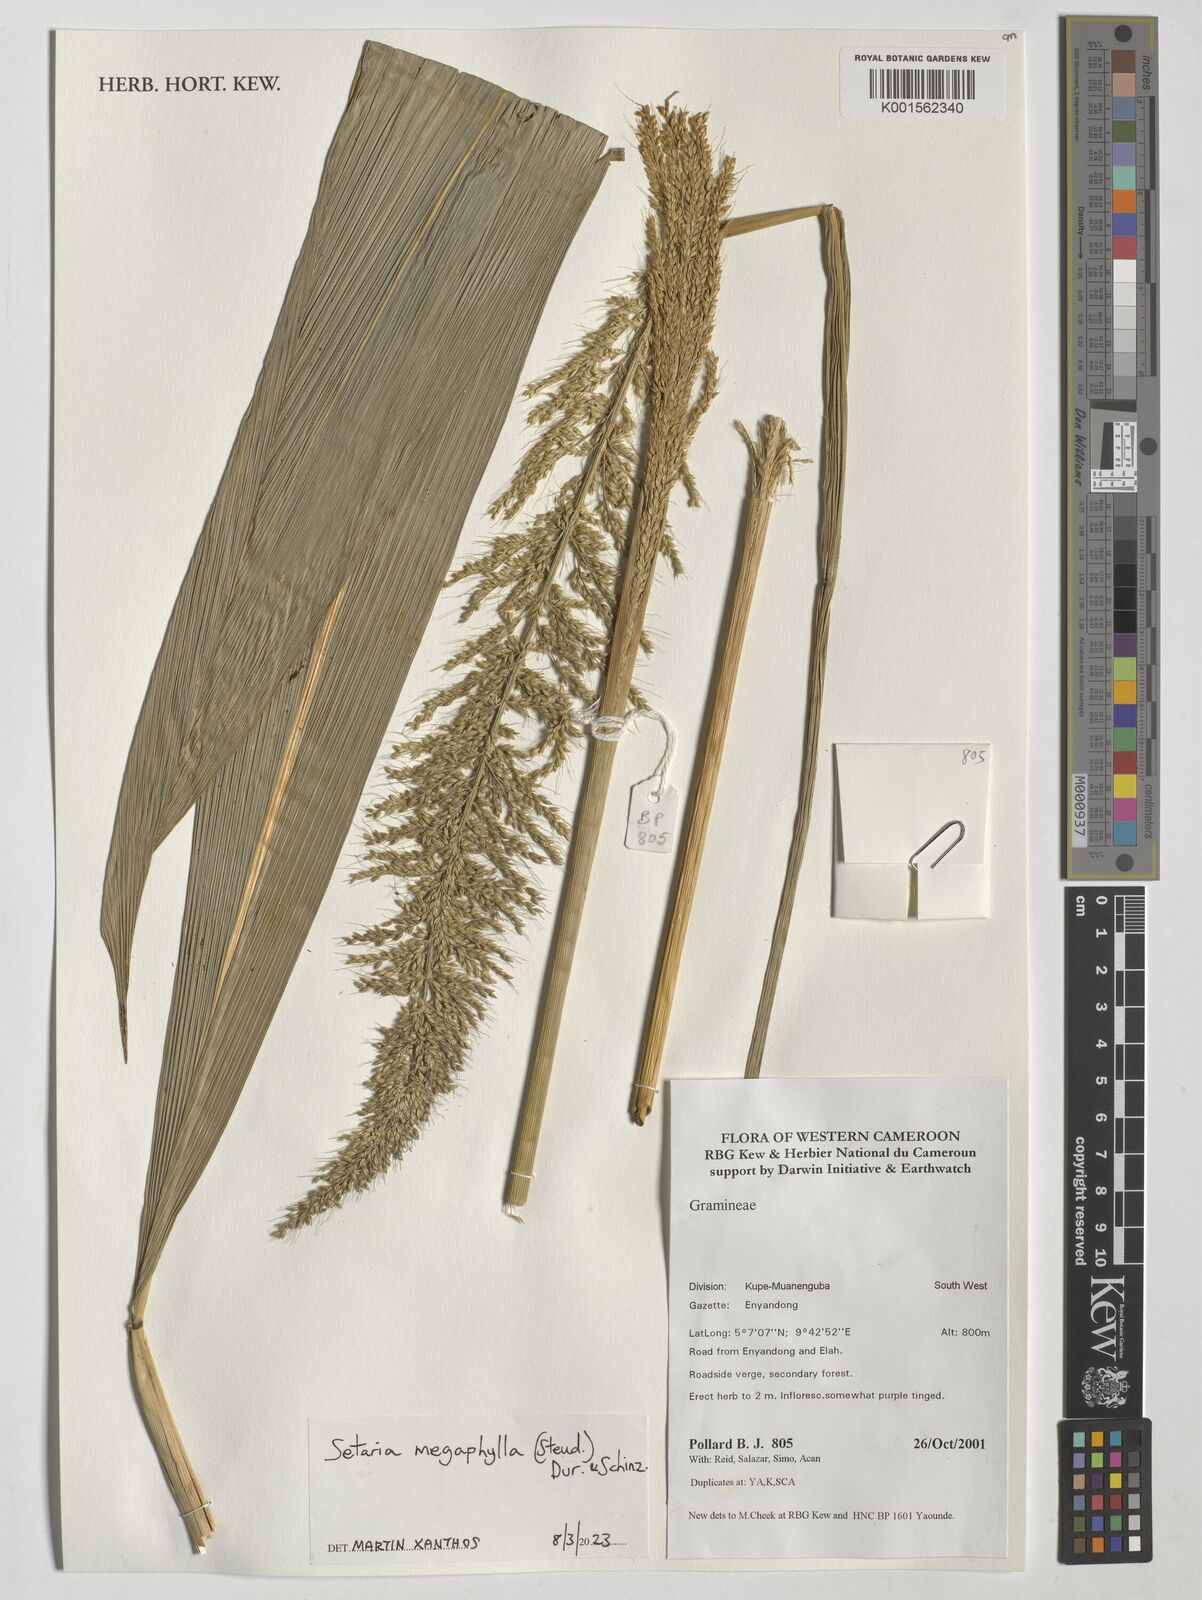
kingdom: Plantae
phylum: Tracheophyta
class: Liliopsida
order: Poales
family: Poaceae
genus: Setaria
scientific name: Setaria megaphylla
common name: Bigleaf bristlegrass
